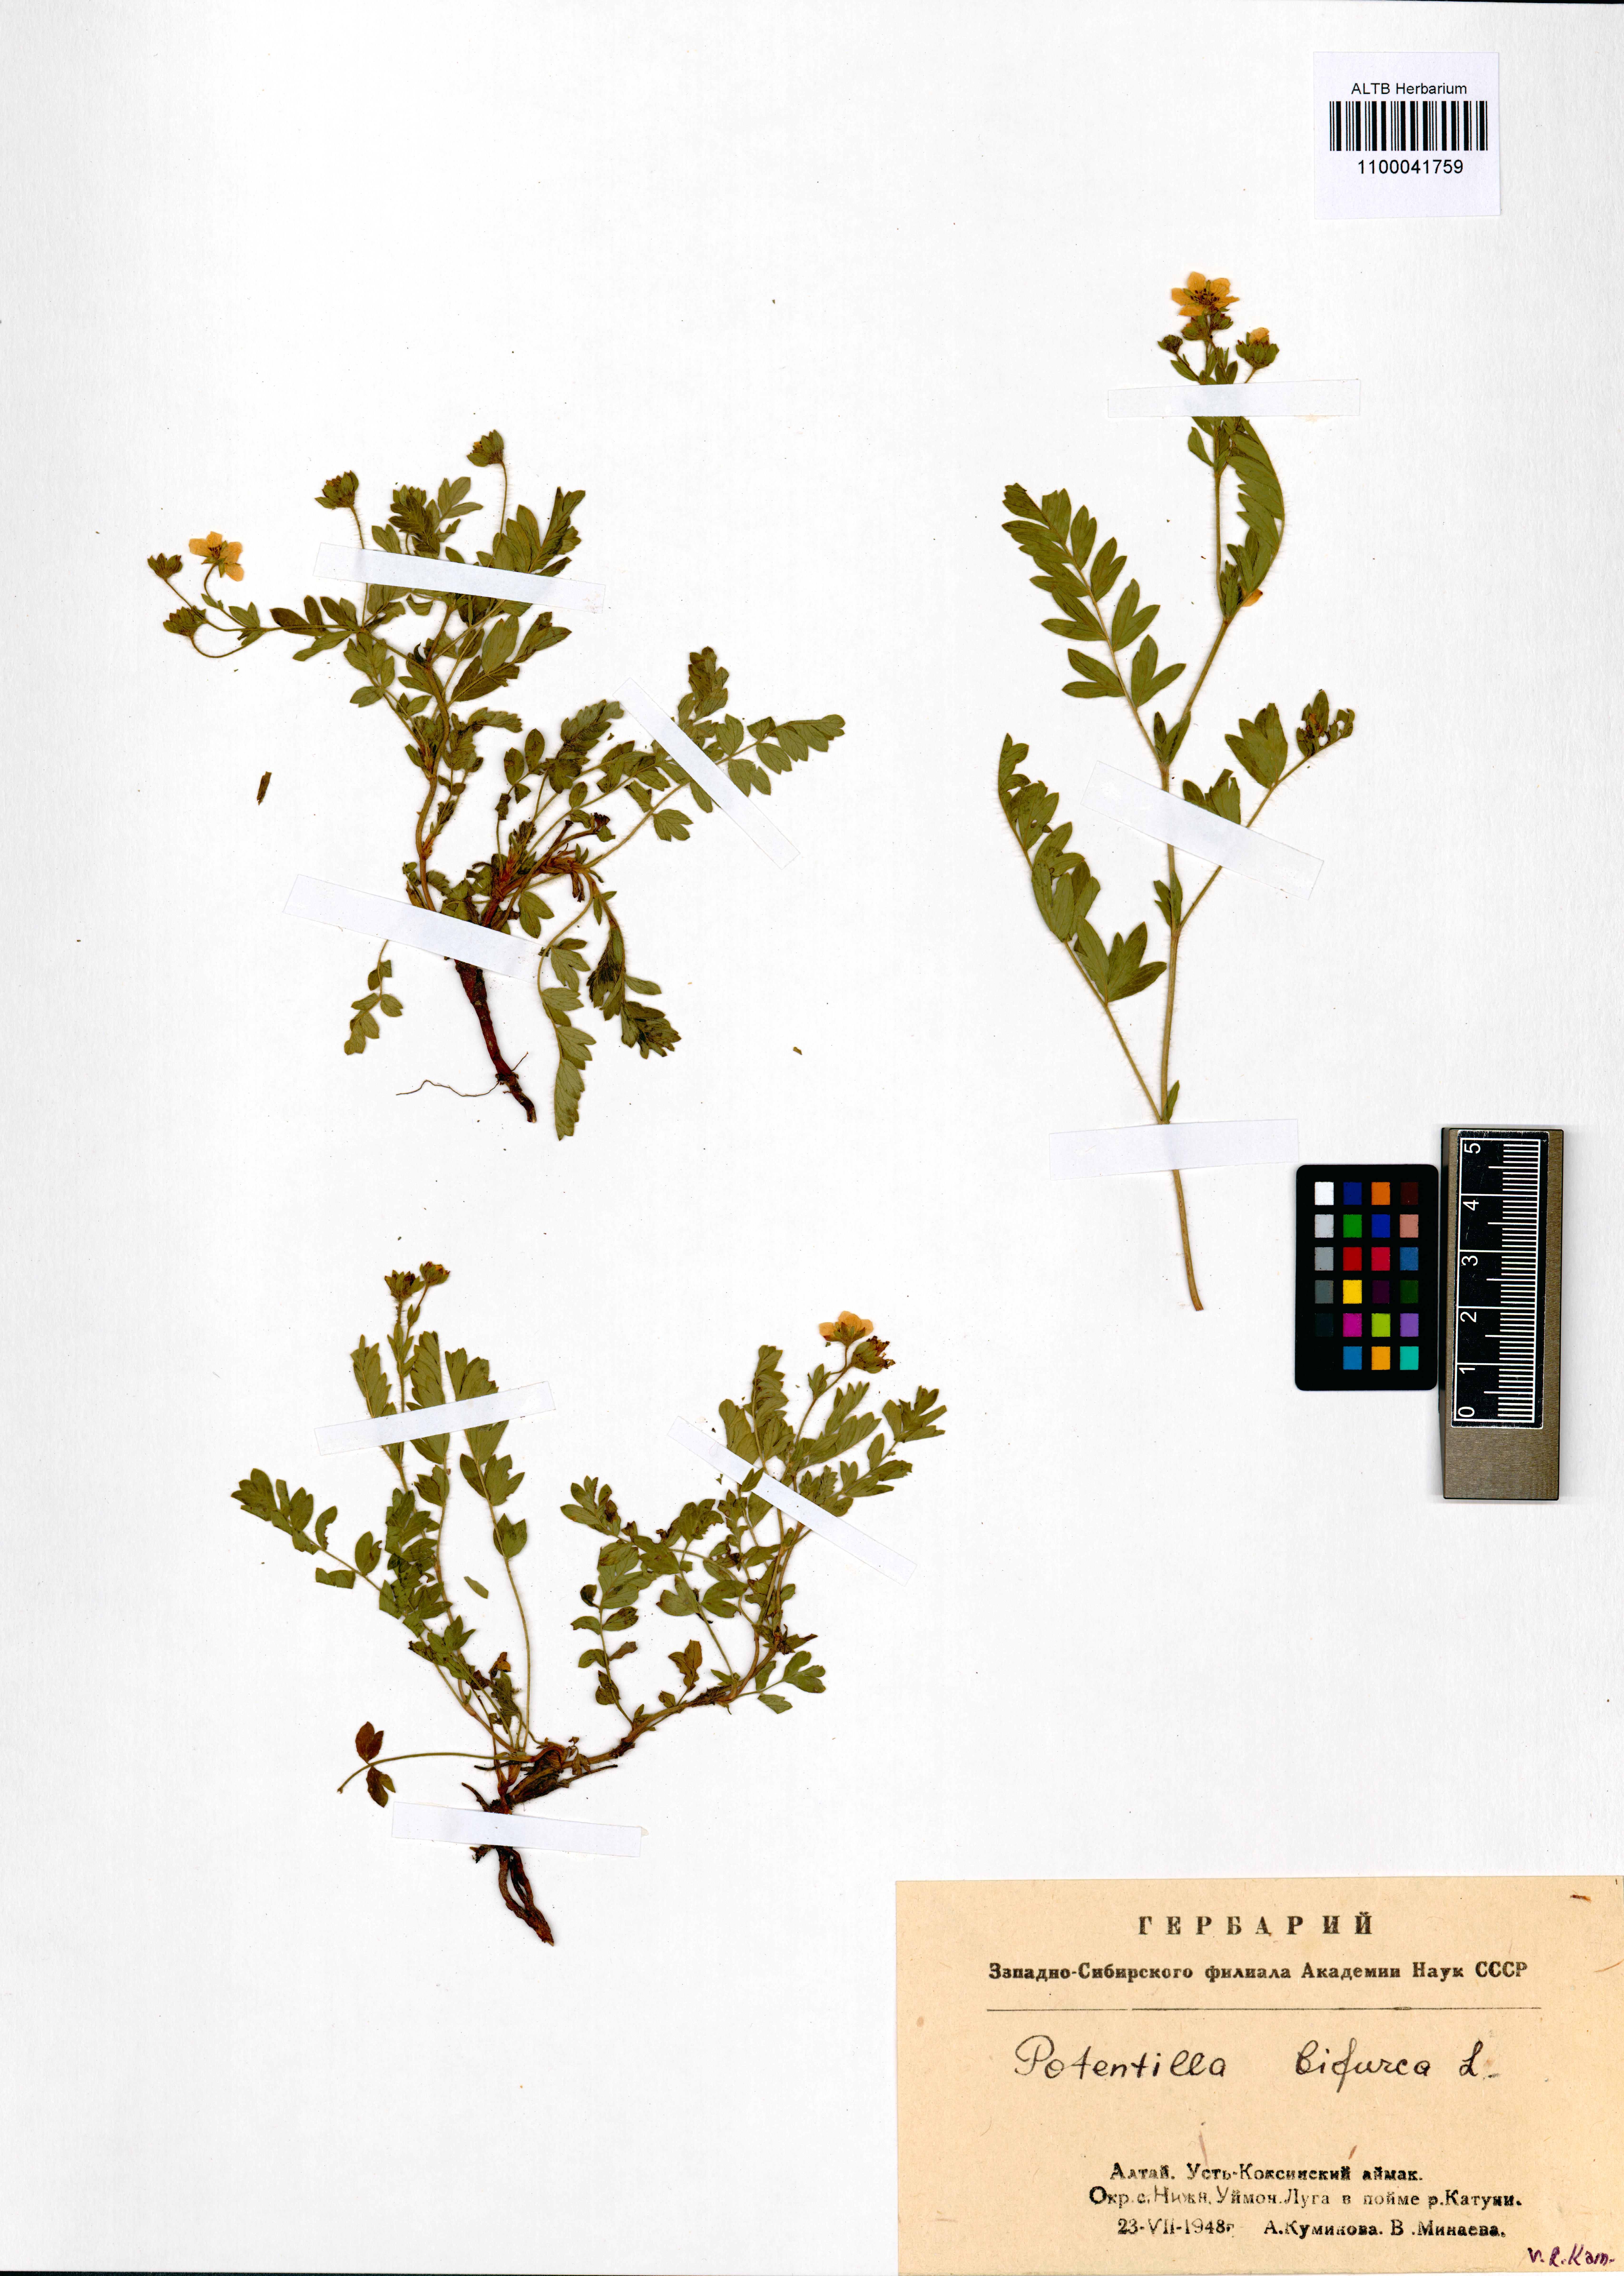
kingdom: Plantae
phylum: Tracheophyta
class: Magnoliopsida
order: Rosales
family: Rosaceae
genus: Sibbaldianthe
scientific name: Sibbaldianthe bifurca
